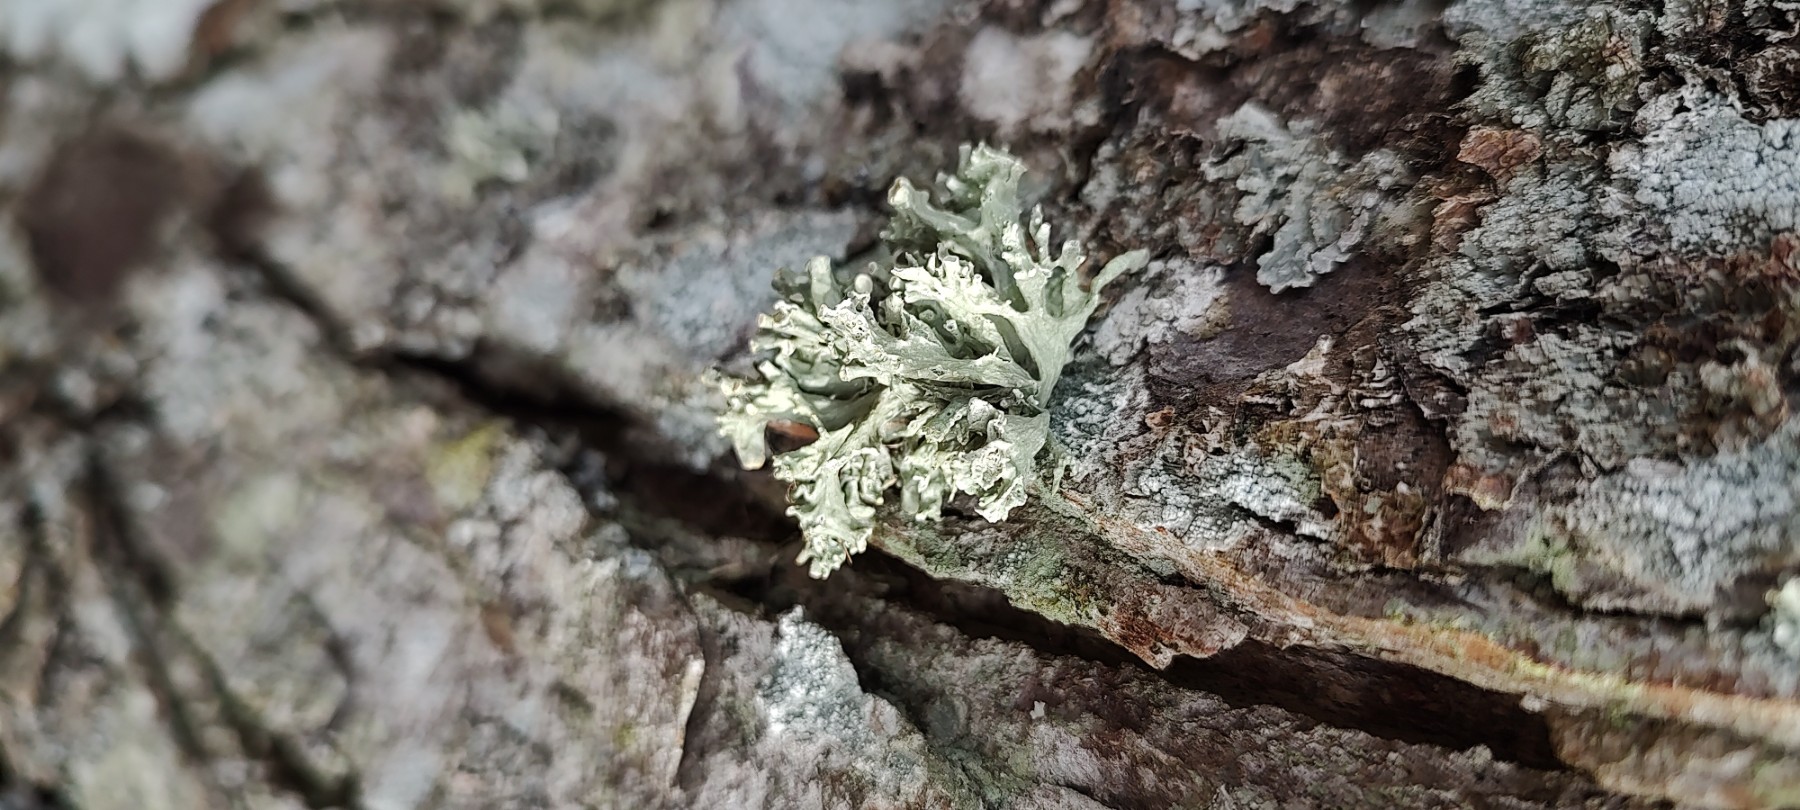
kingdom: Fungi
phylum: Ascomycota
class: Lecanoromycetes
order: Lecanorales
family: Ramalinaceae
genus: Ramalina
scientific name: Ramalina fastigiata
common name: tue-grenlav
